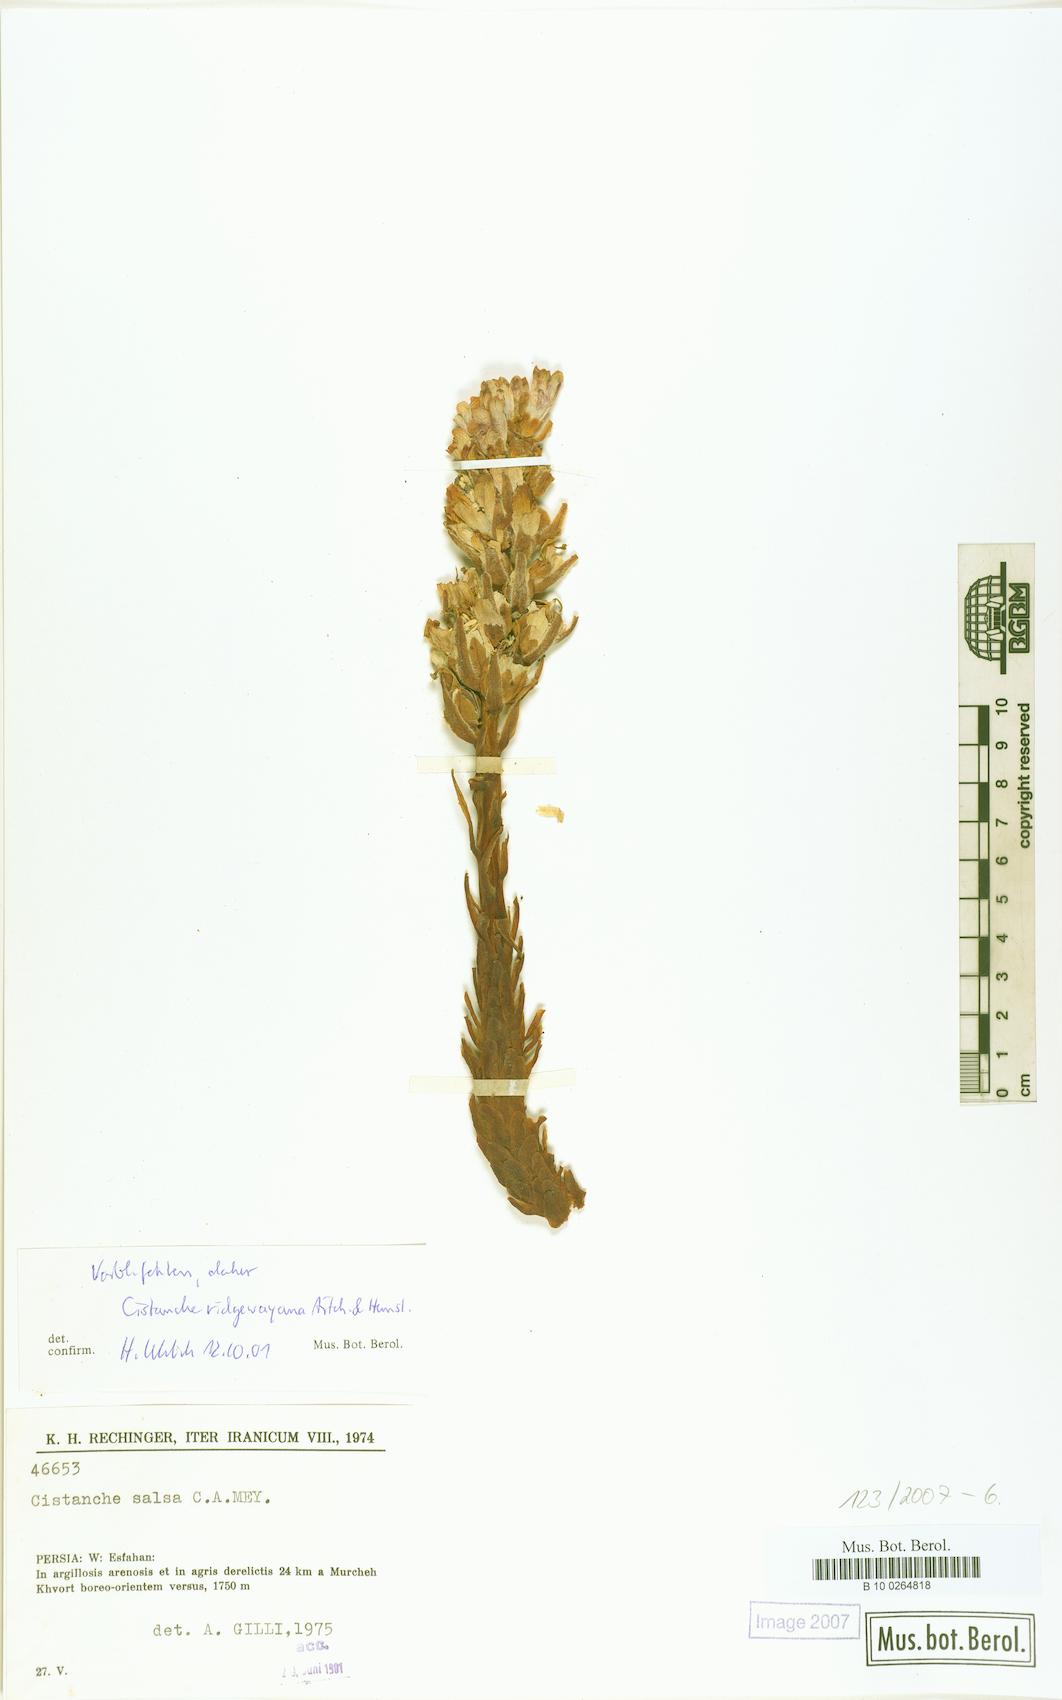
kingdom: Plantae
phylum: Tracheophyta
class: Magnoliopsida
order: Lamiales
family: Orobanchaceae
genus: Cistanche
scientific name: Cistanche tomentosa
